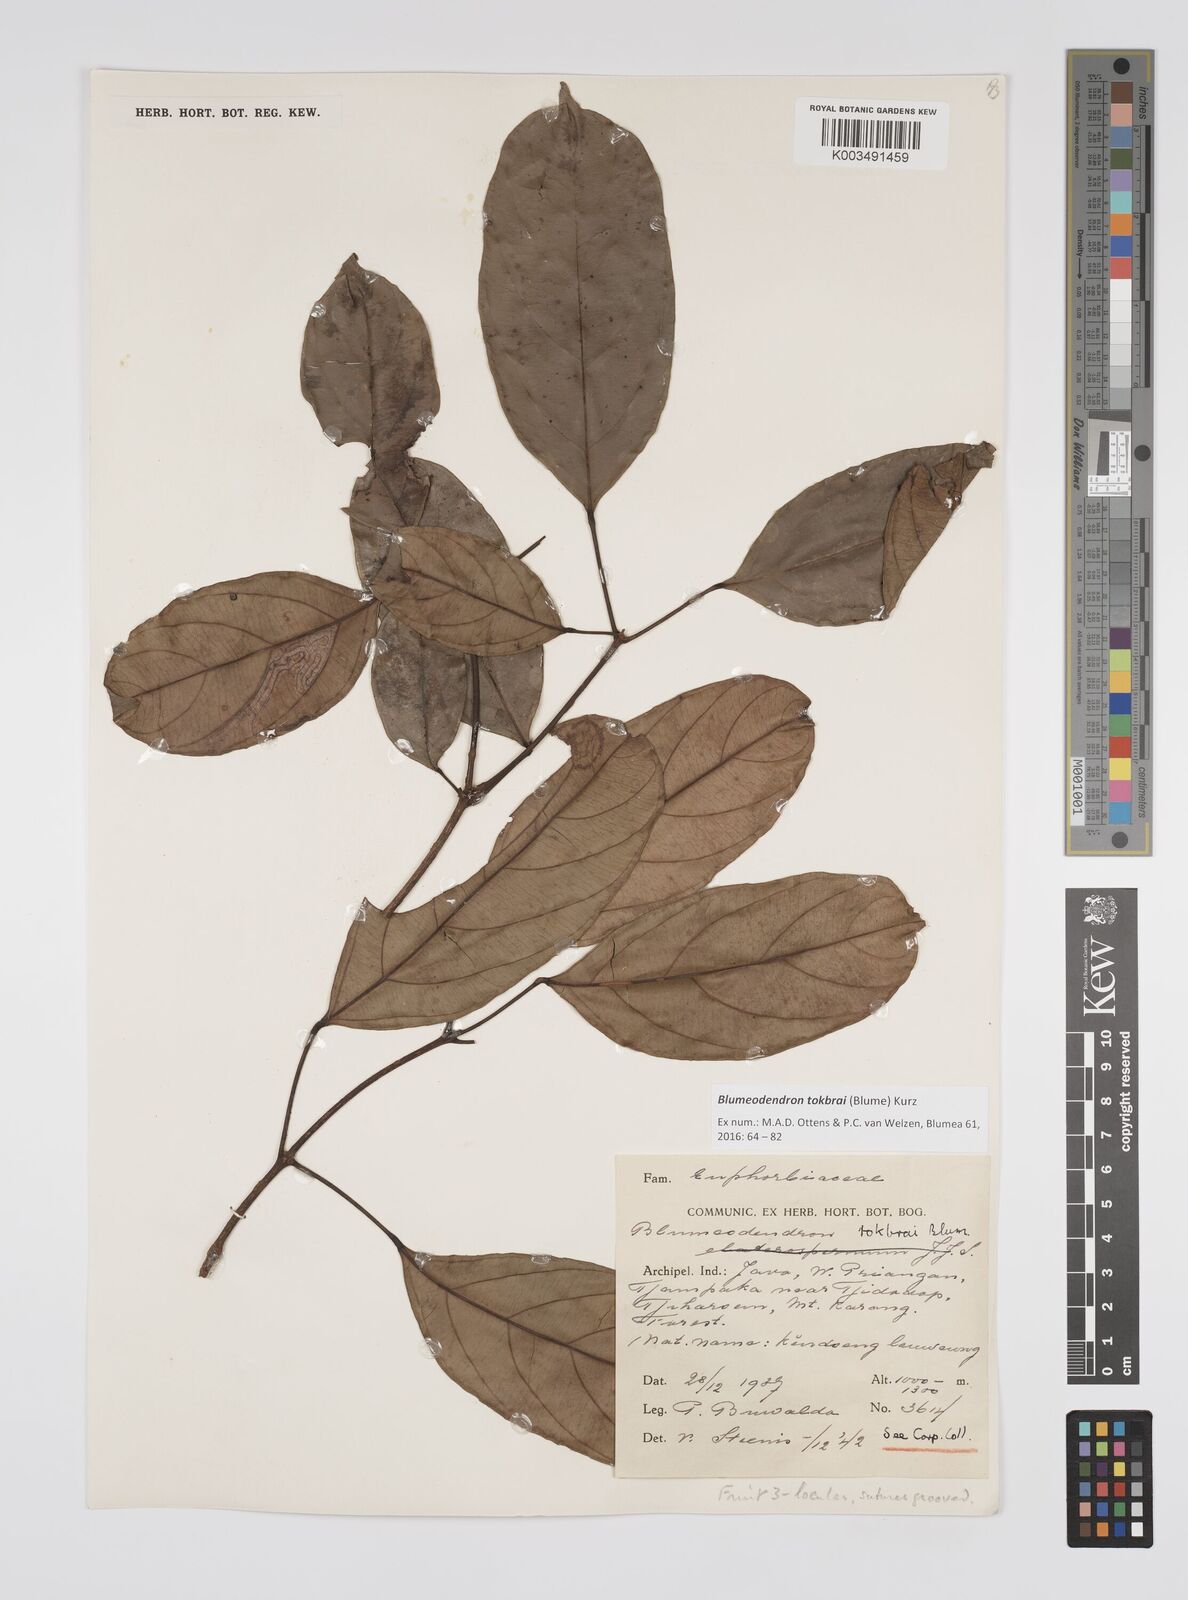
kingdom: Plantae
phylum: Tracheophyta
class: Magnoliopsida
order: Malpighiales
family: Euphorbiaceae
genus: Blumeodendron
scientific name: Blumeodendron tokbrai
